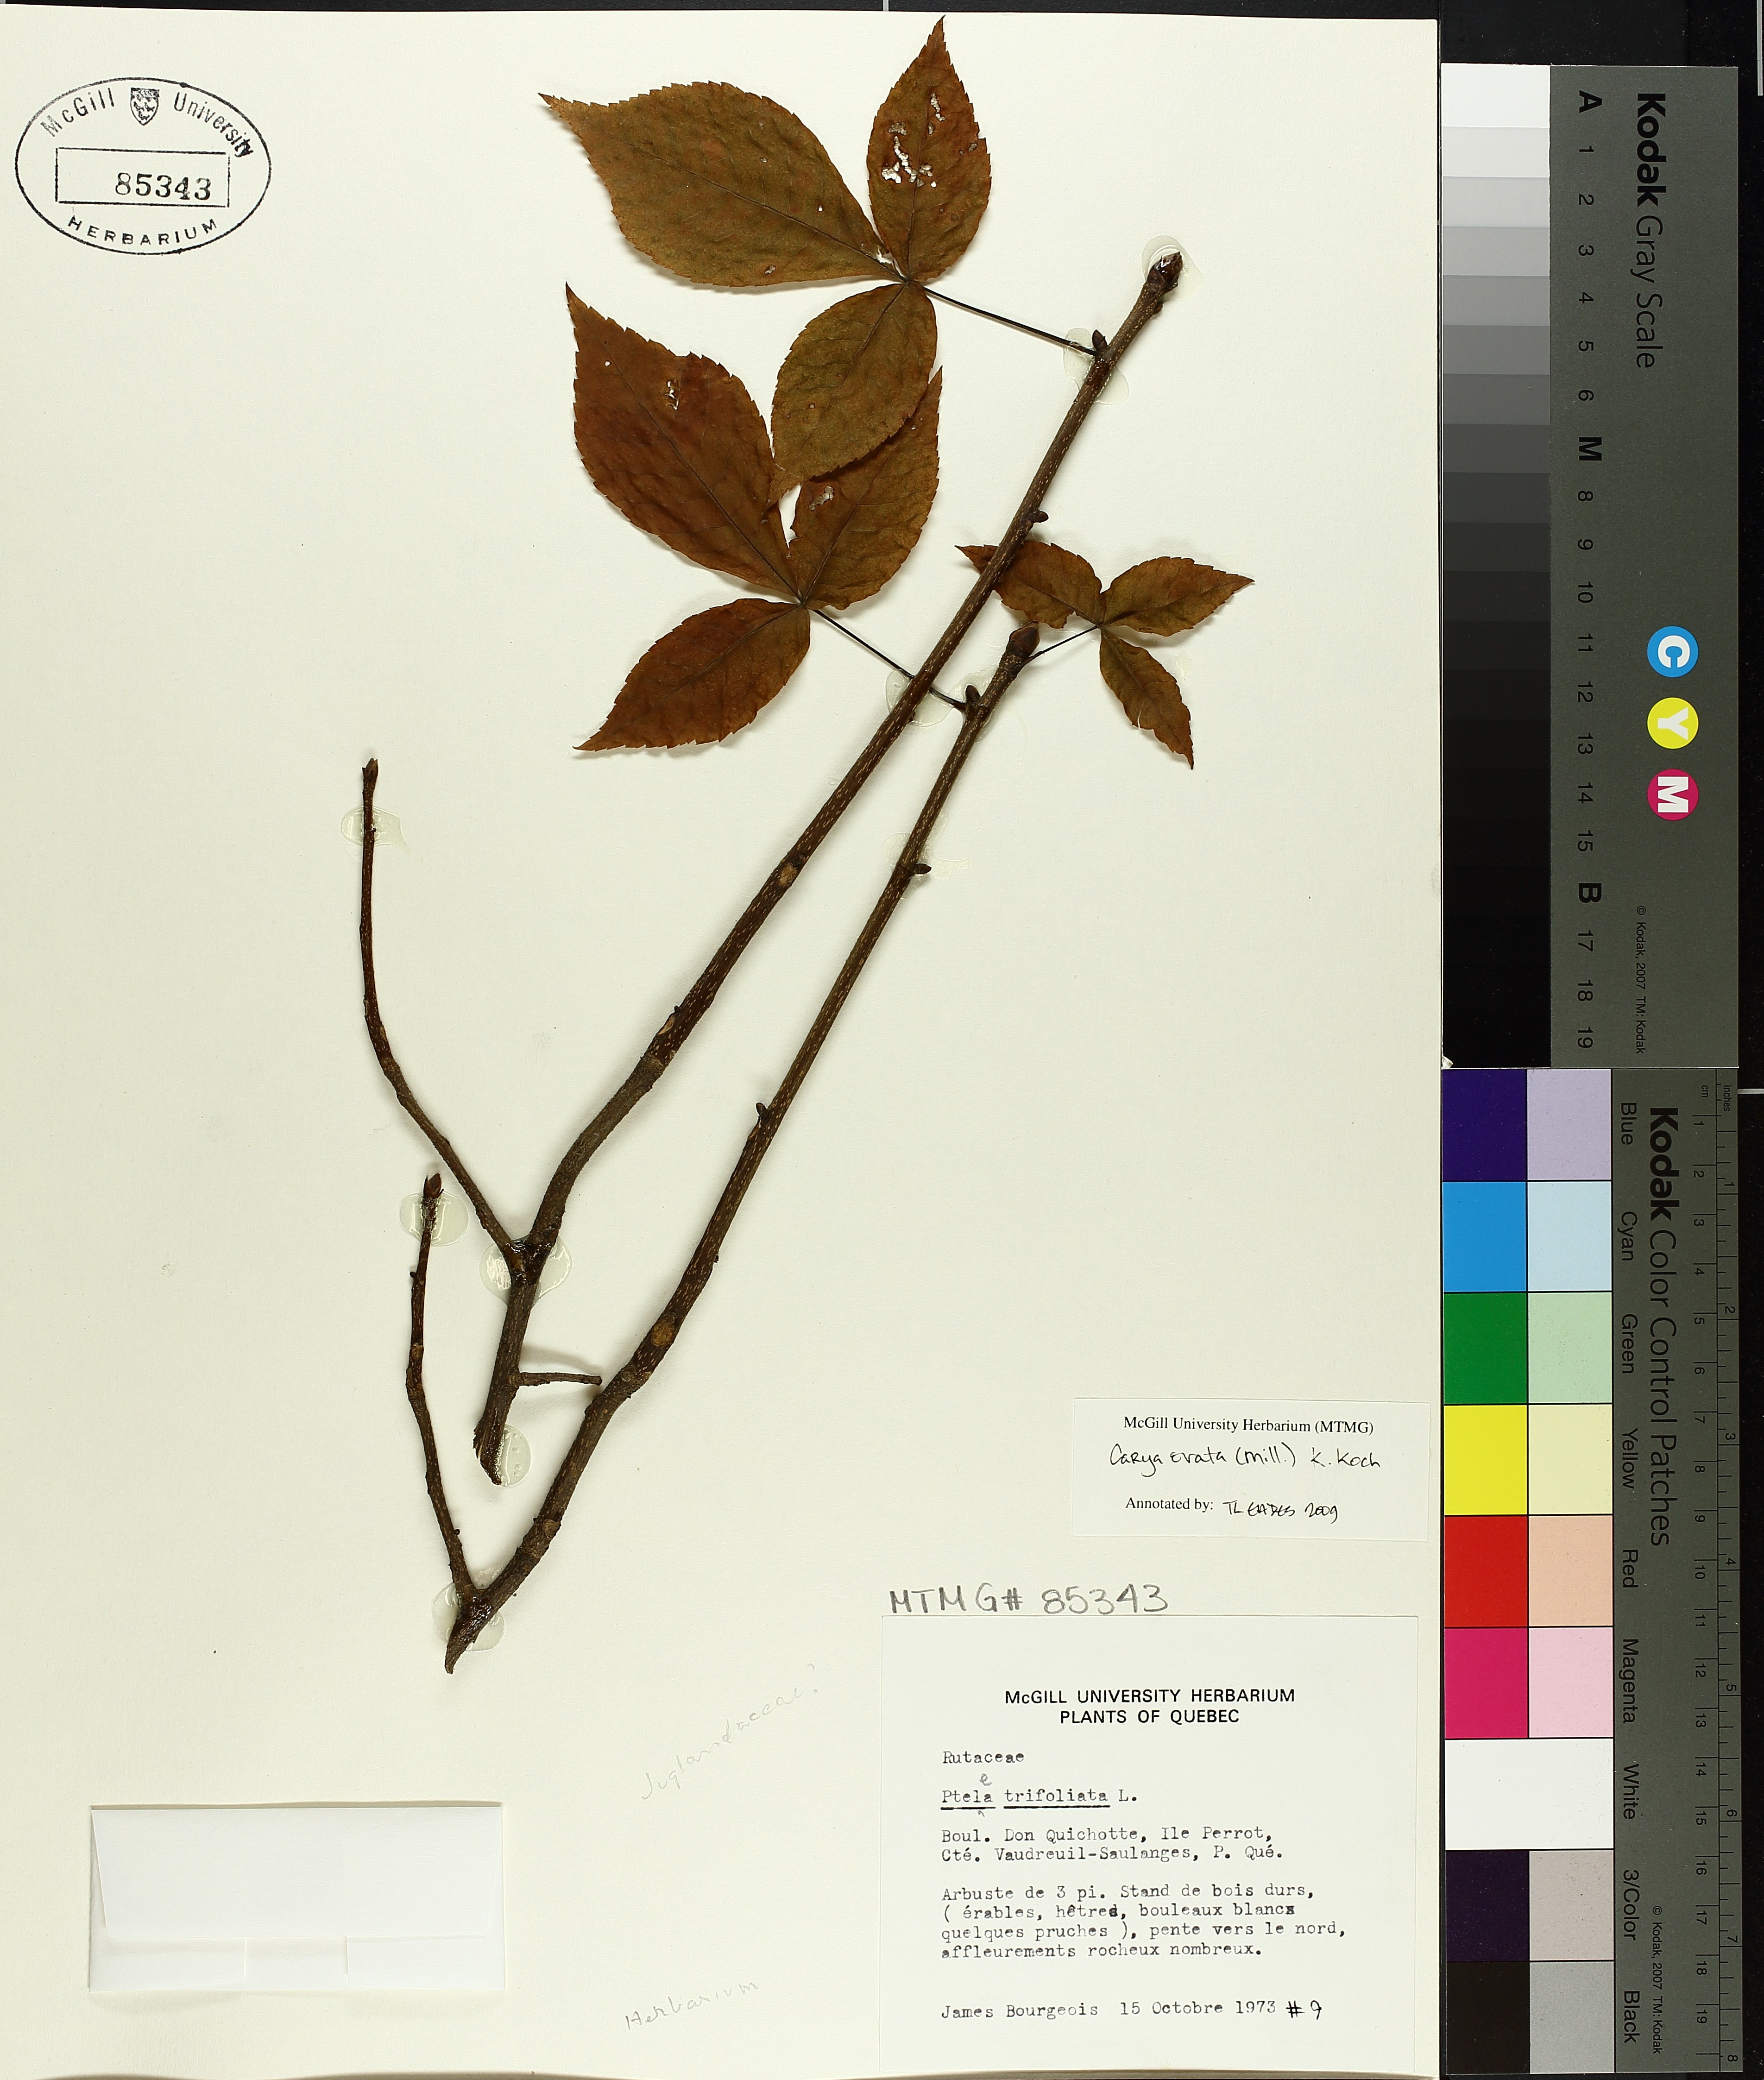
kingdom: Plantae
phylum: Tracheophyta
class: Magnoliopsida
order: Fagales
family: Juglandaceae
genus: Carya
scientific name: Carya ovata
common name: Shagbark hickory
